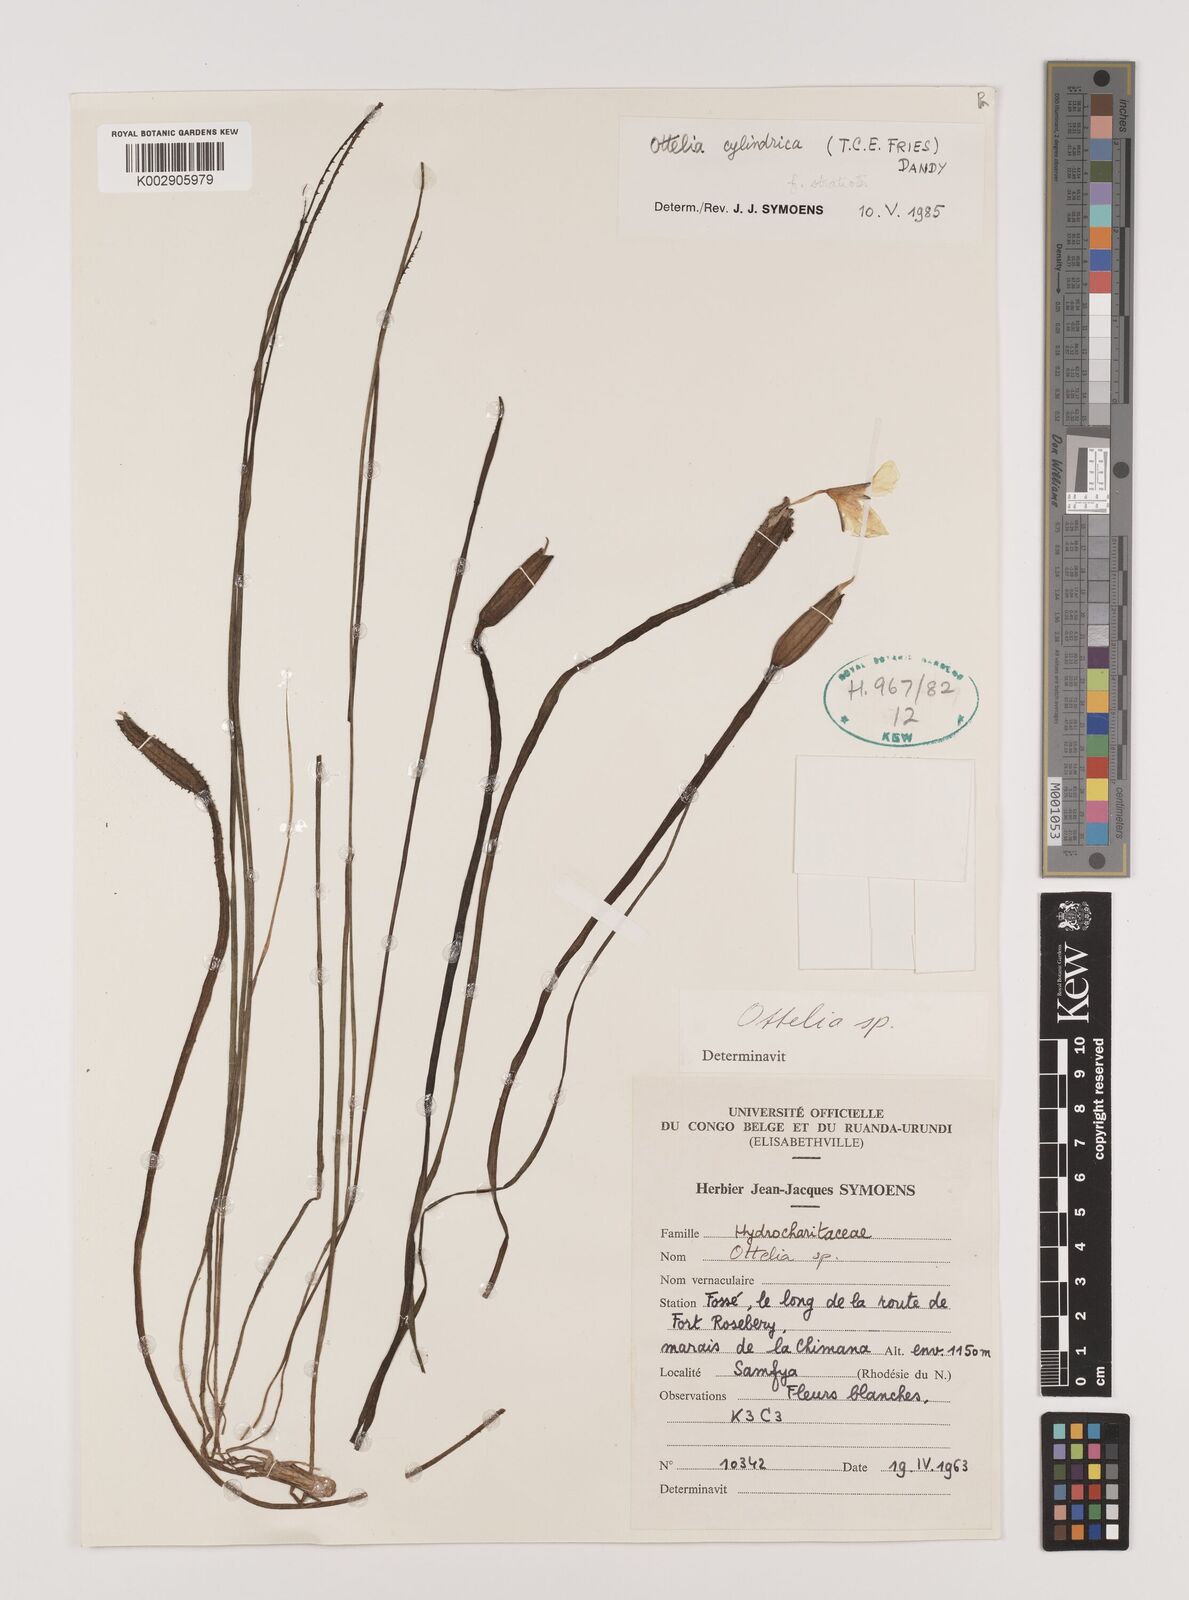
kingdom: Plantae
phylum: Tracheophyta
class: Liliopsida
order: Alismatales
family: Hydrocharitaceae
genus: Ottelia
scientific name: Ottelia cylindrica
